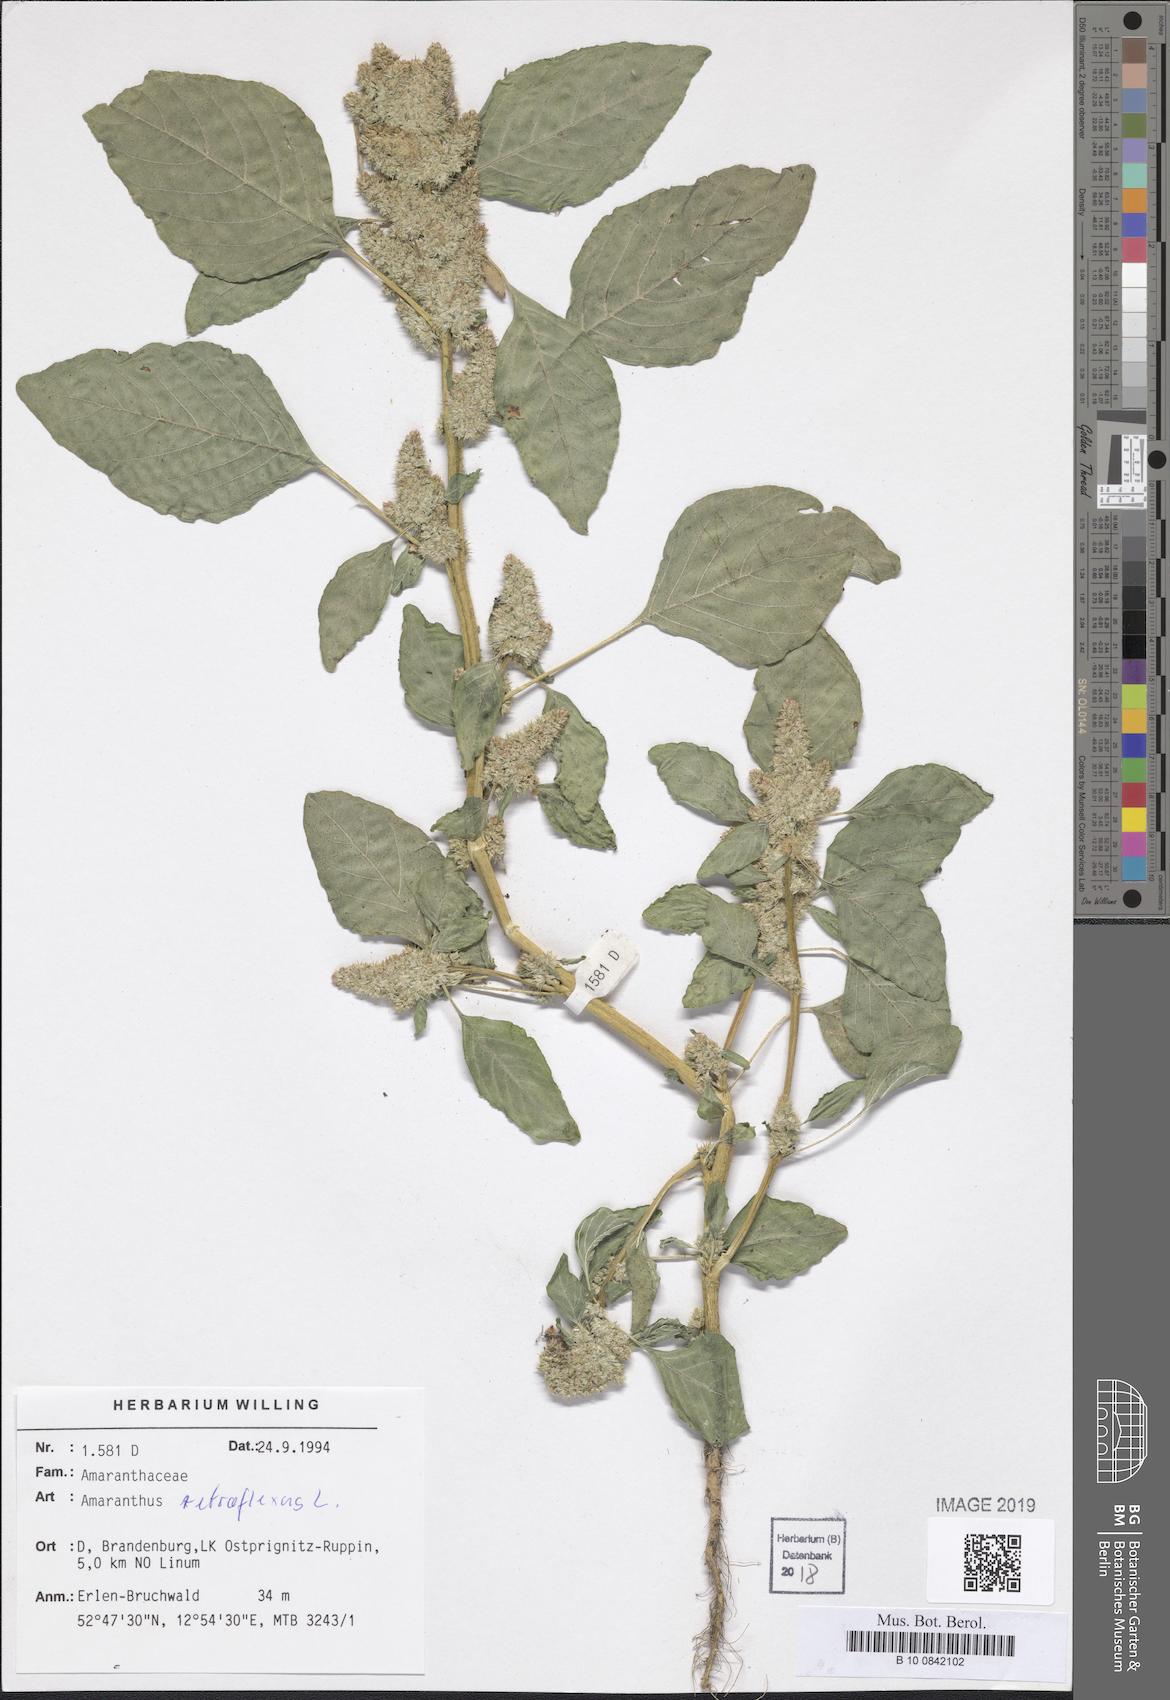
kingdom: Plantae
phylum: Tracheophyta
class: Magnoliopsida
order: Caryophyllales
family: Amaranthaceae
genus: Amaranthus
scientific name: Amaranthus retroflexus
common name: Redroot amaranth
